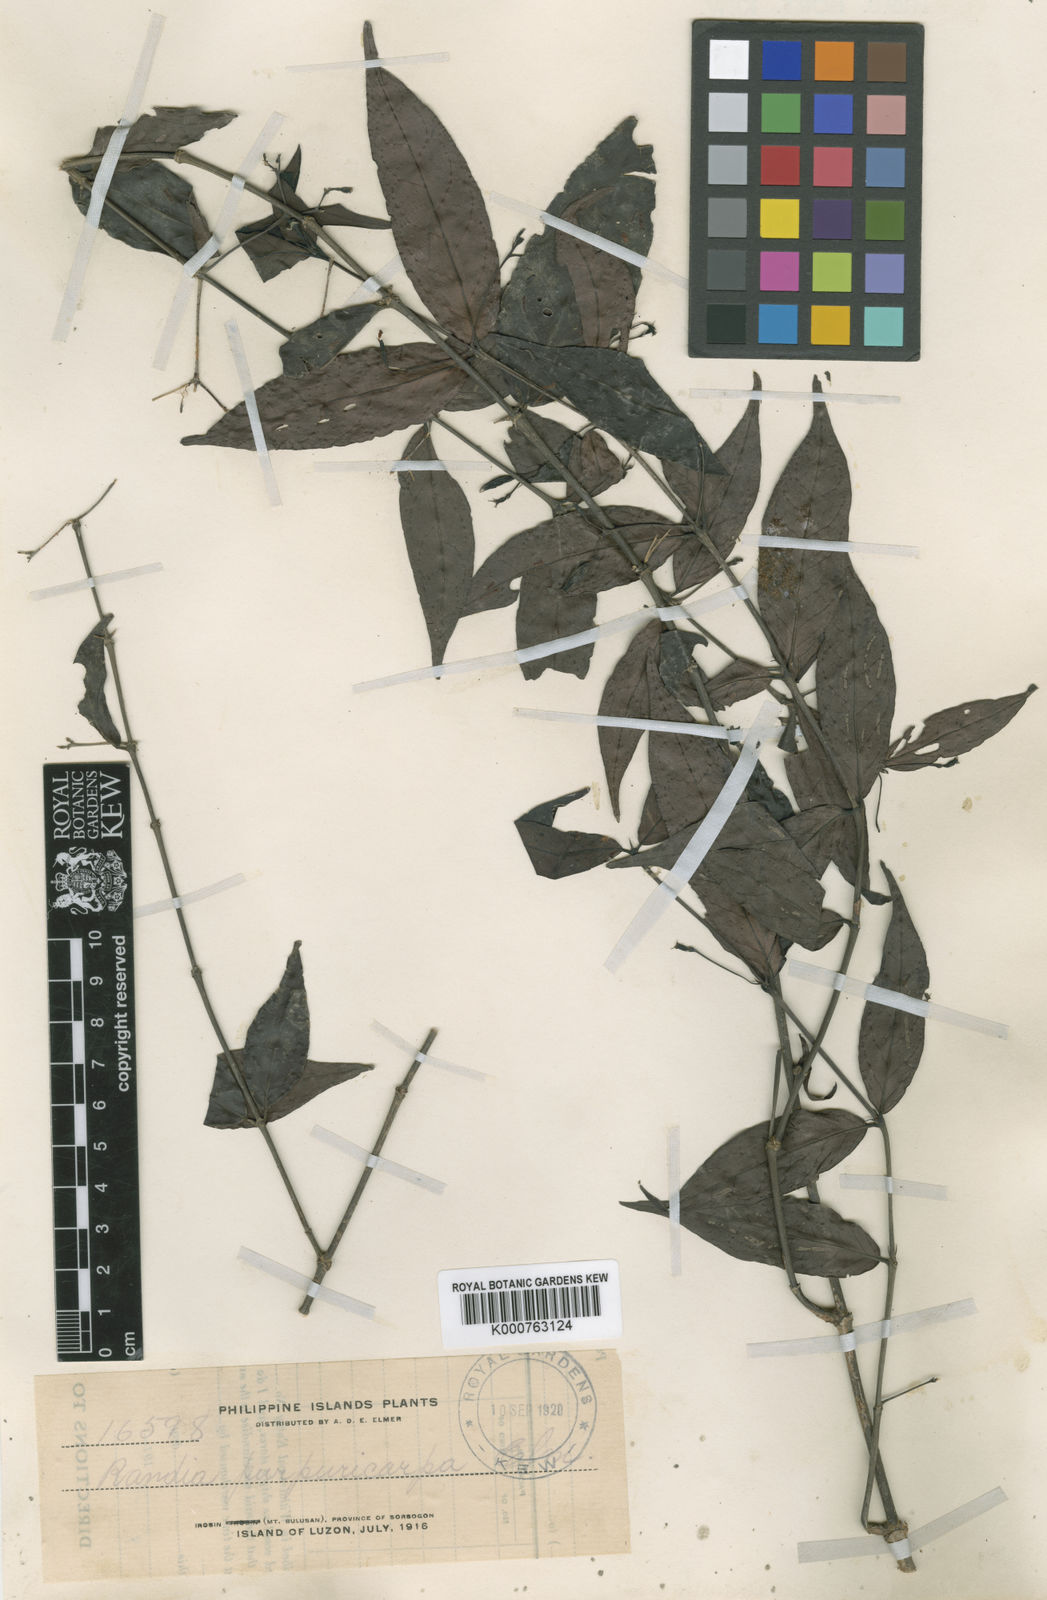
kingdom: Plantae
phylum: Tracheophyta
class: Magnoliopsida
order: Gentianales
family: Rubiaceae
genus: Hypobathrum
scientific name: Hypobathrum purpuricarpum
